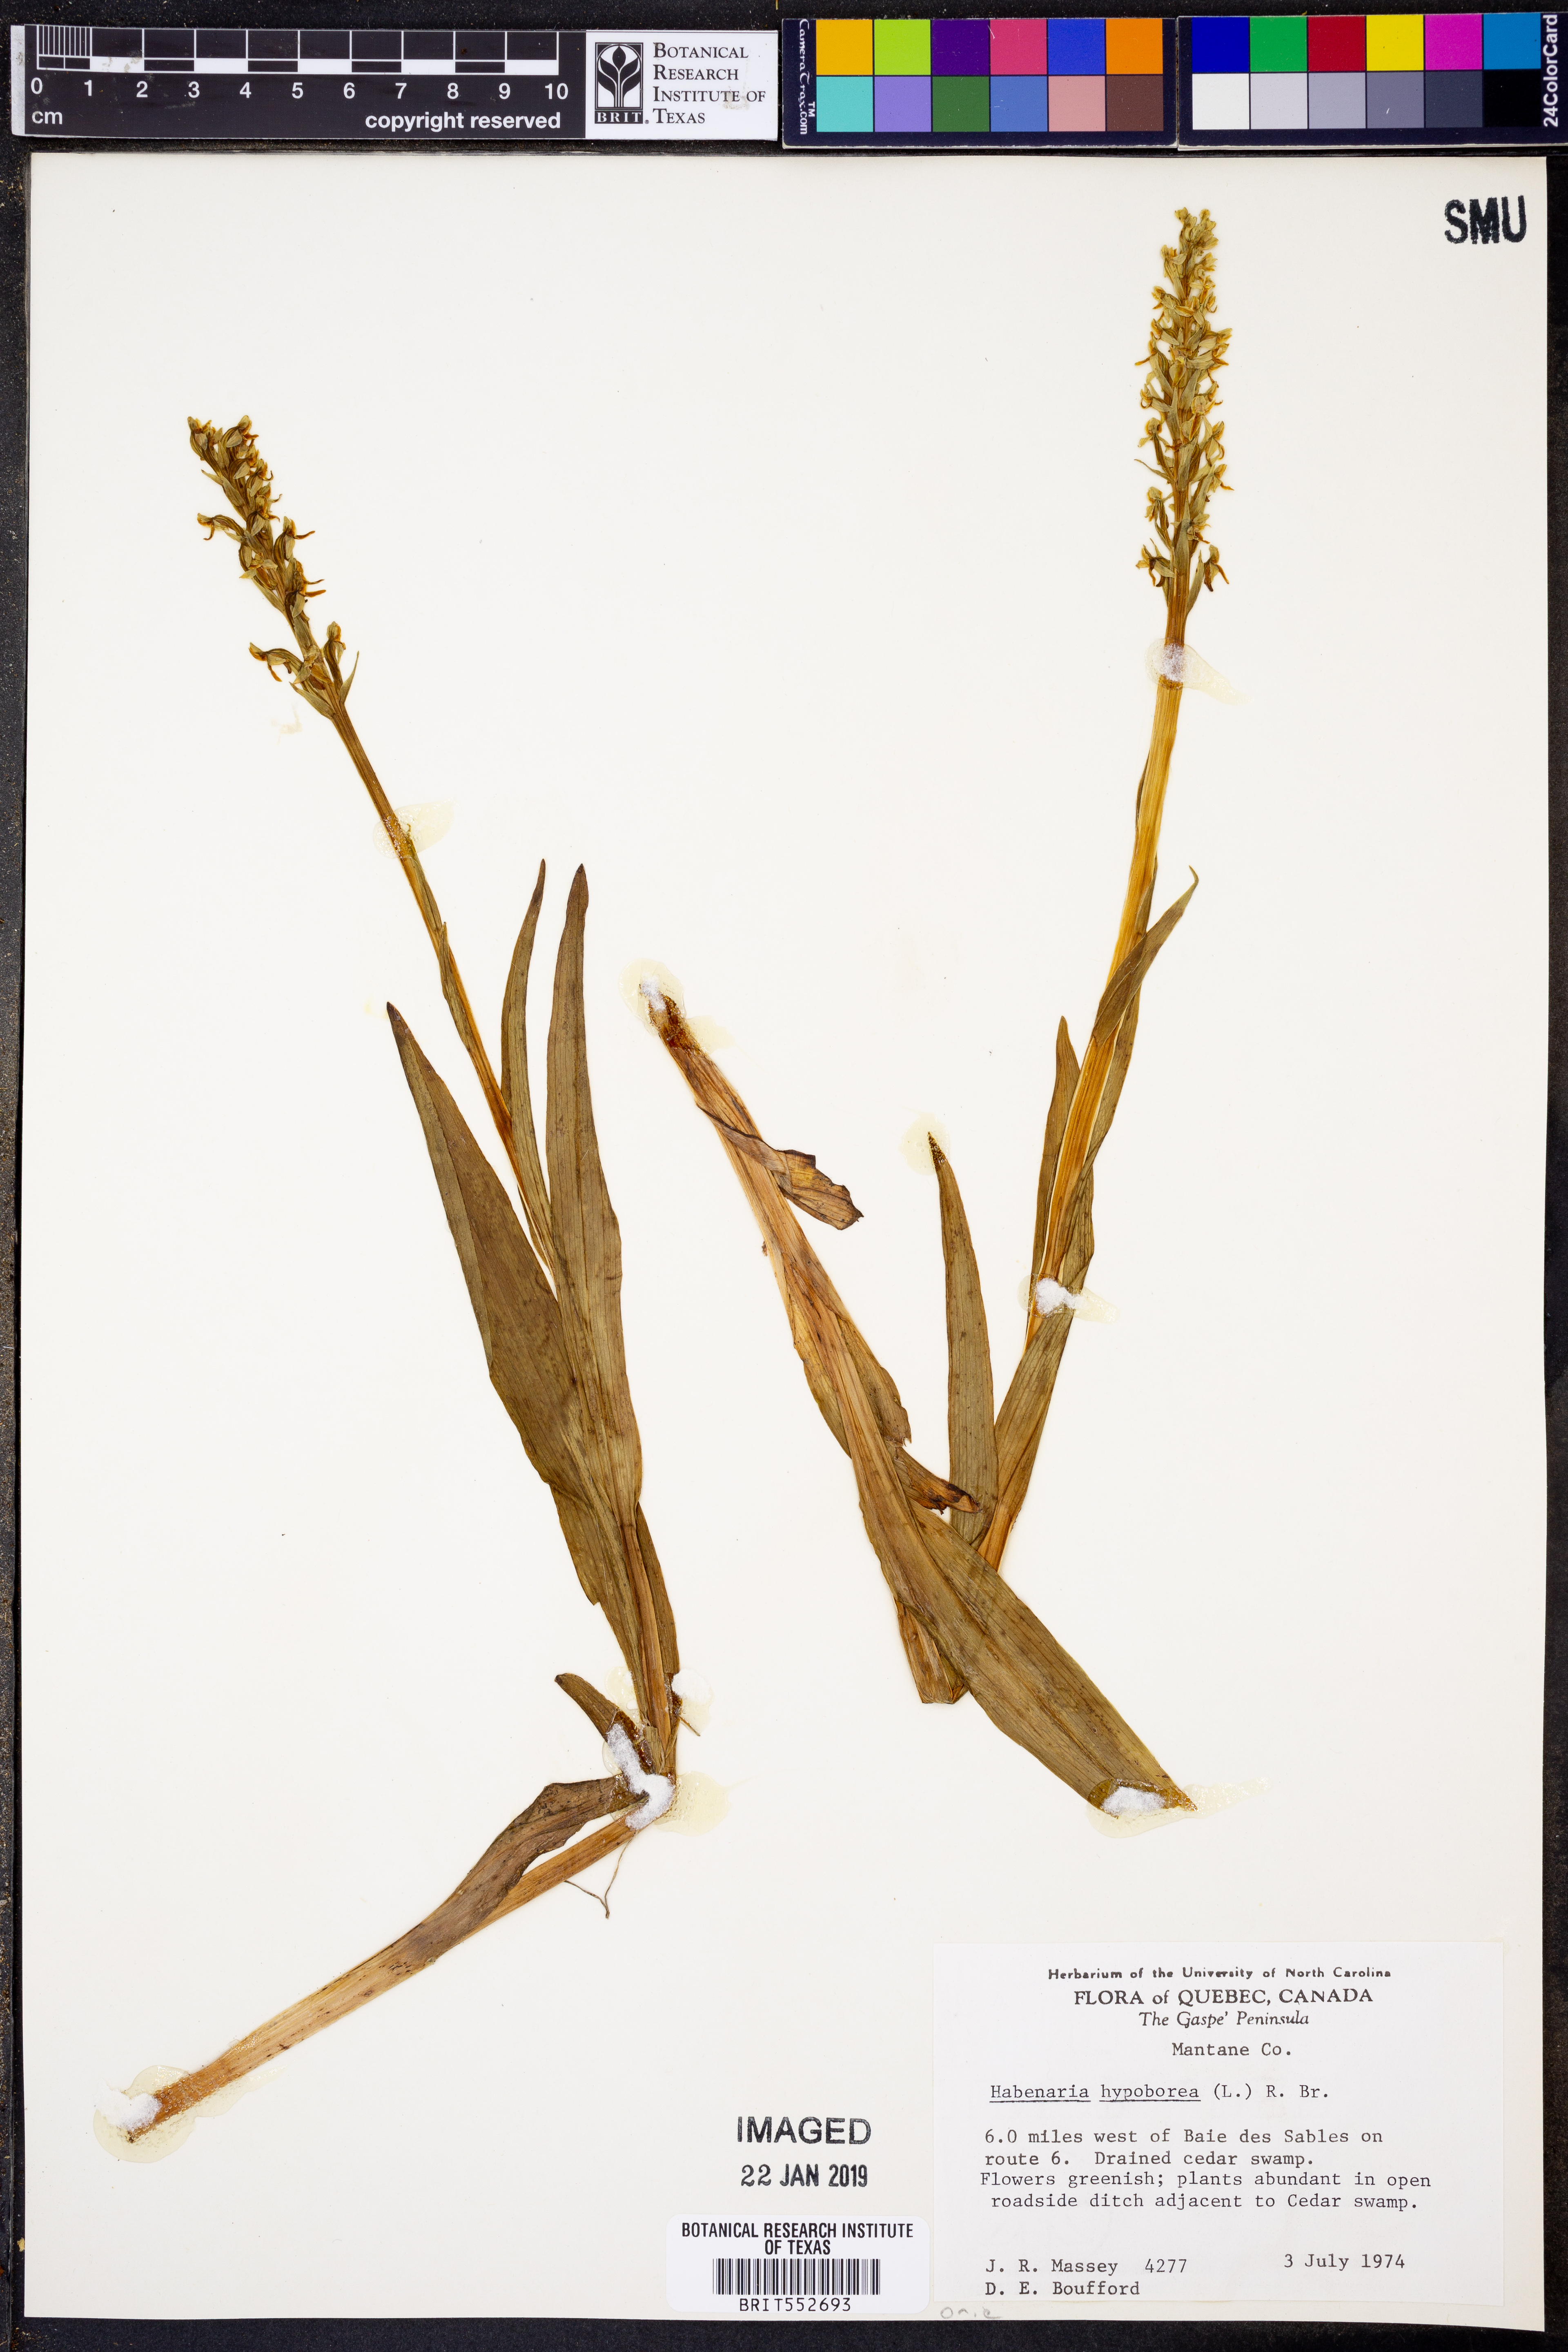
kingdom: Plantae
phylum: Tracheophyta
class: Liliopsida
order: Asparagales
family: Orchidaceae
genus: Platanthera
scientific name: Platanthera hyperborea
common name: Northern green orchid
